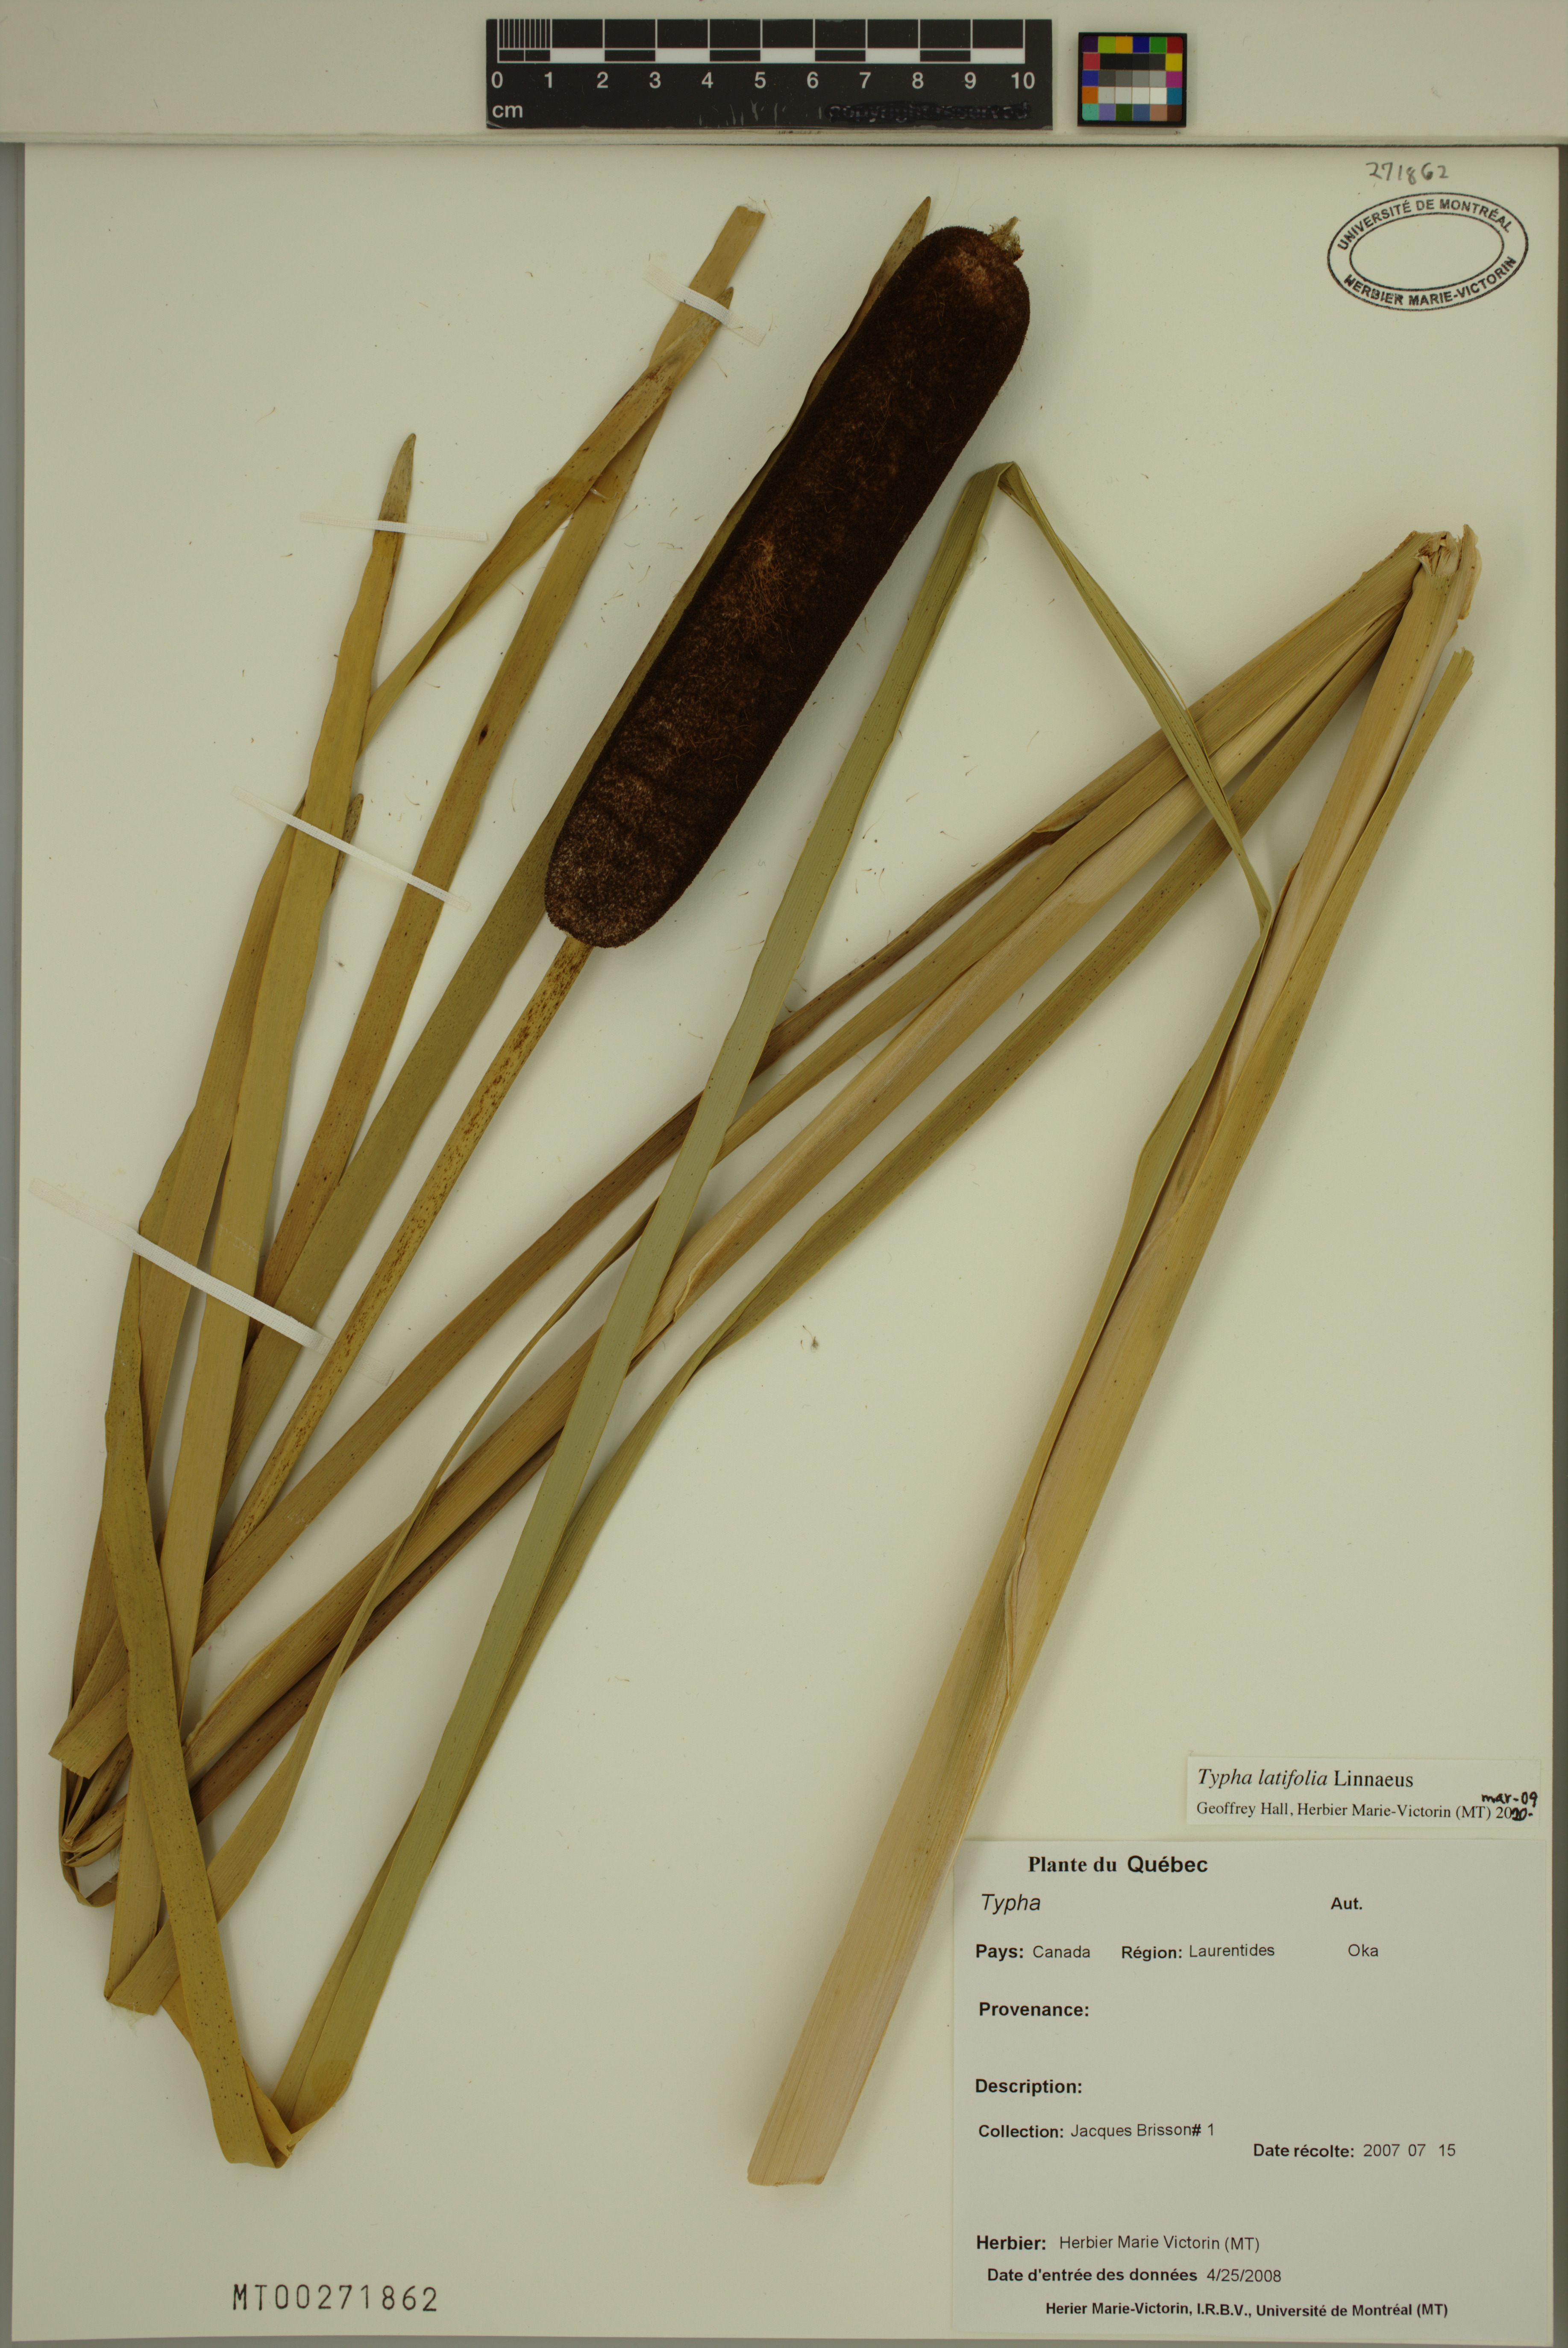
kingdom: Plantae
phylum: Tracheophyta
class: Liliopsida
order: Poales
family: Typhaceae
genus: Typha
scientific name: Typha latifolia
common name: Broadleaf cattail
